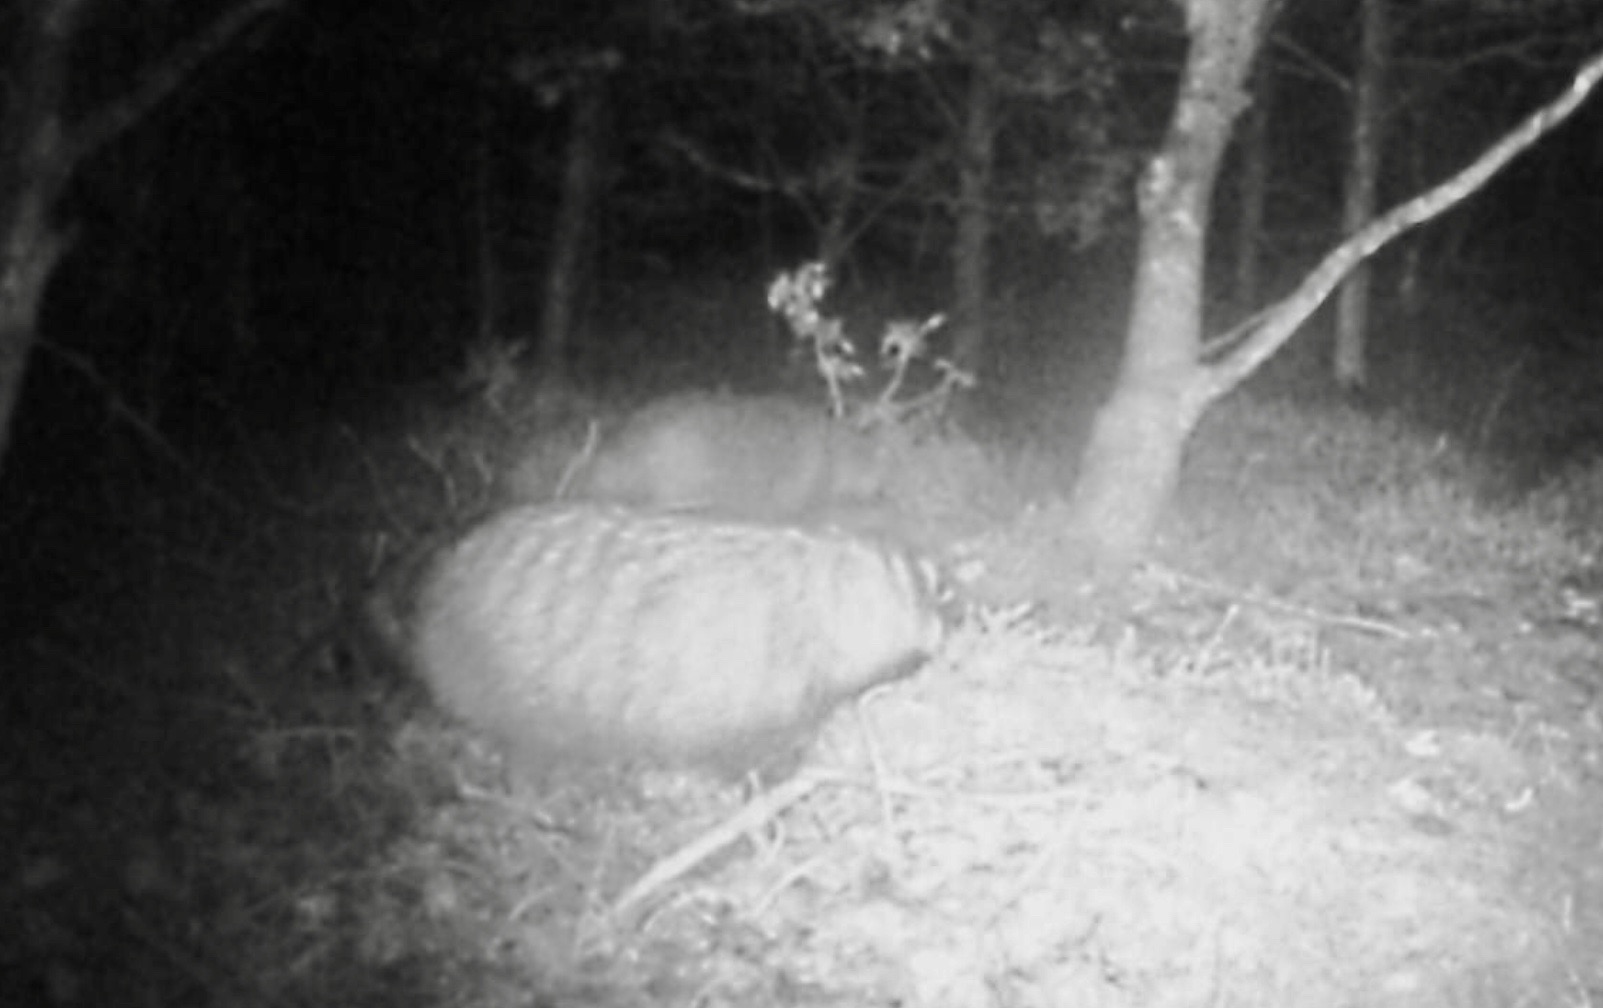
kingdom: Animalia
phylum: Chordata
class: Mammalia
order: Carnivora
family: Canidae
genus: Nyctereutes
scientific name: Nyctereutes procyonoides
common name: Mårhund
